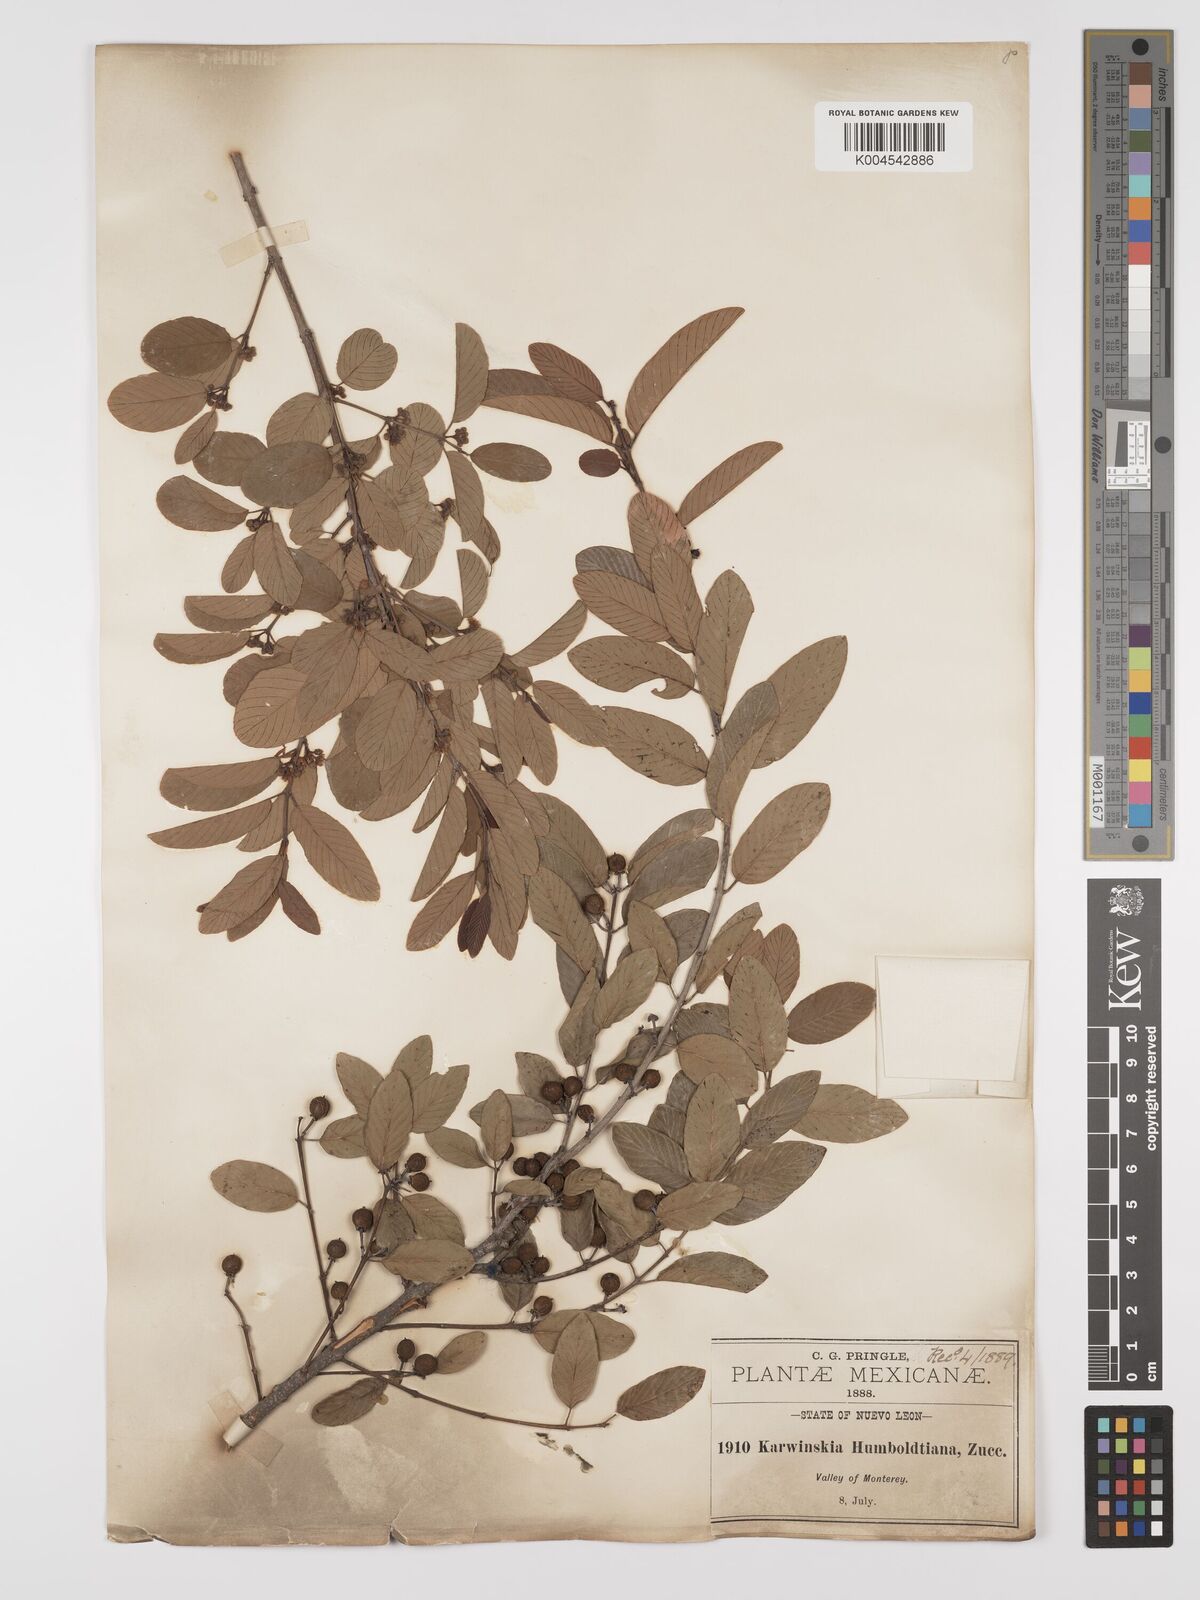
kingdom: Plantae
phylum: Tracheophyta
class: Magnoliopsida
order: Rosales
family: Rhamnaceae
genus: Karwinskia
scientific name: Karwinskia humboldtiana
